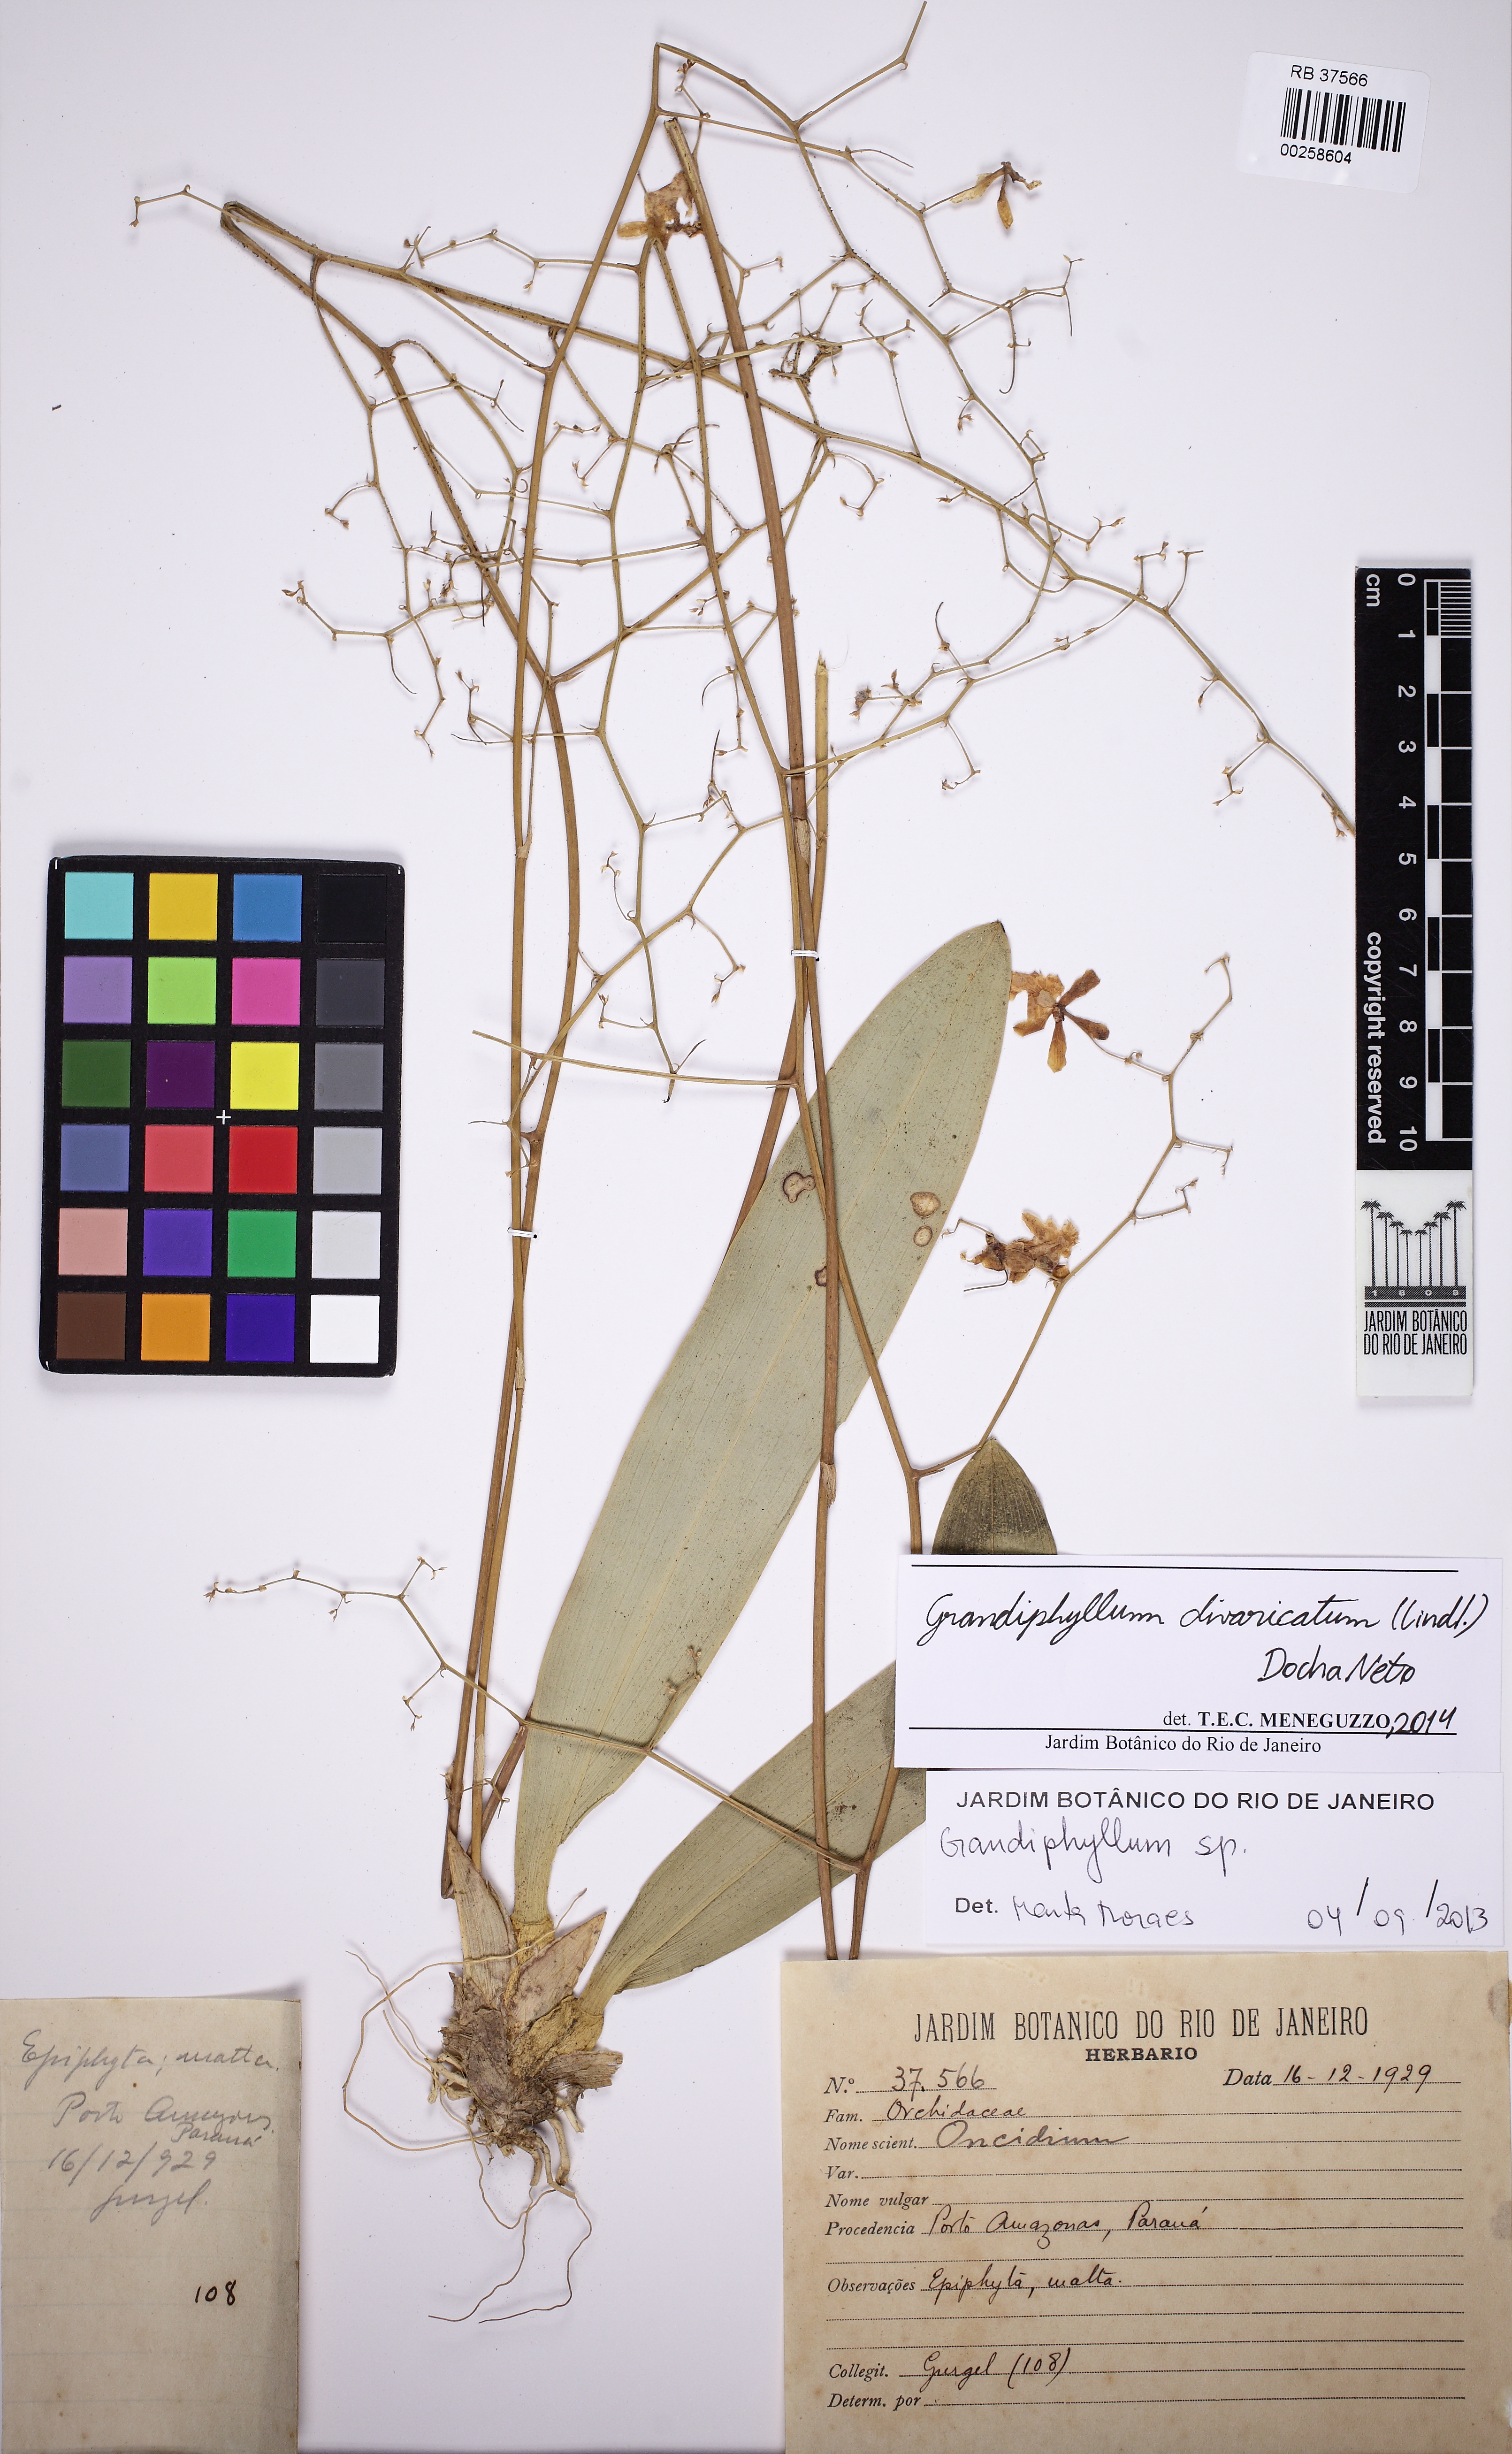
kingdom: Plantae
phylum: Tracheophyta
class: Liliopsida
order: Asparagales
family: Orchidaceae
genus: Grandiphyllum
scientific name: Grandiphyllum divaricatum
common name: Mule-ear orchid
